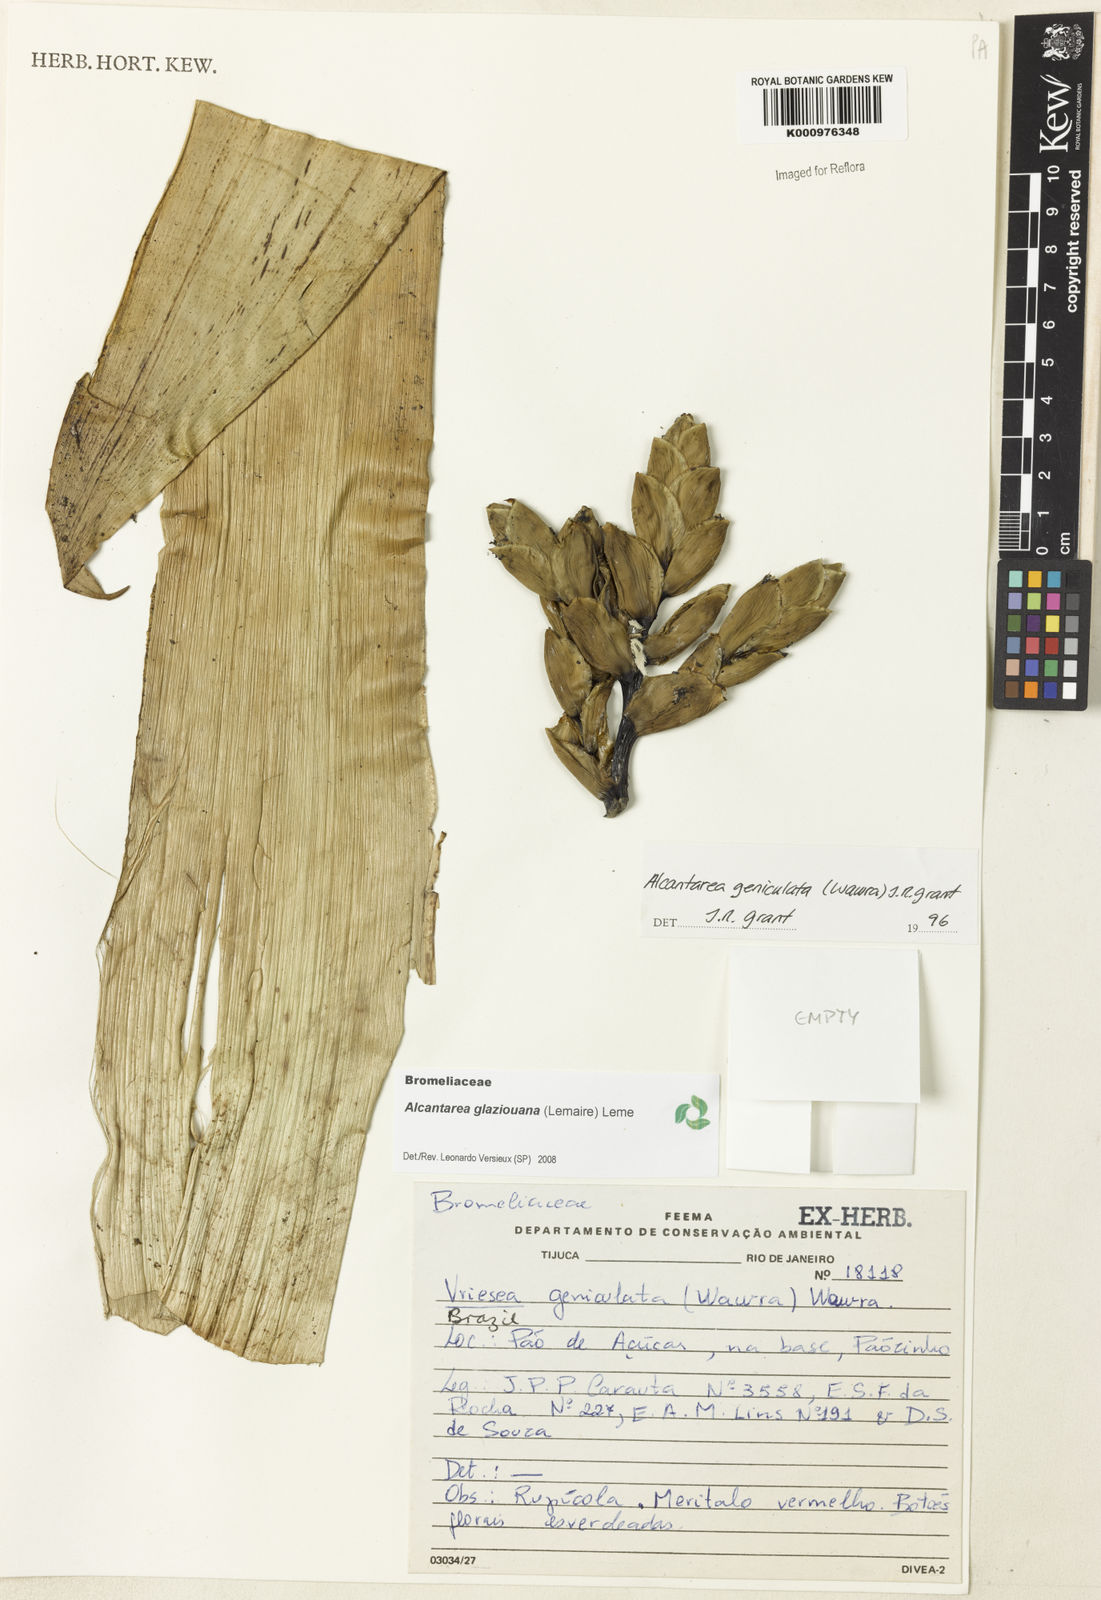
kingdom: Plantae
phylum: Tracheophyta
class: Liliopsida
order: Poales
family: Bromeliaceae
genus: Vriesea
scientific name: Vriesea
